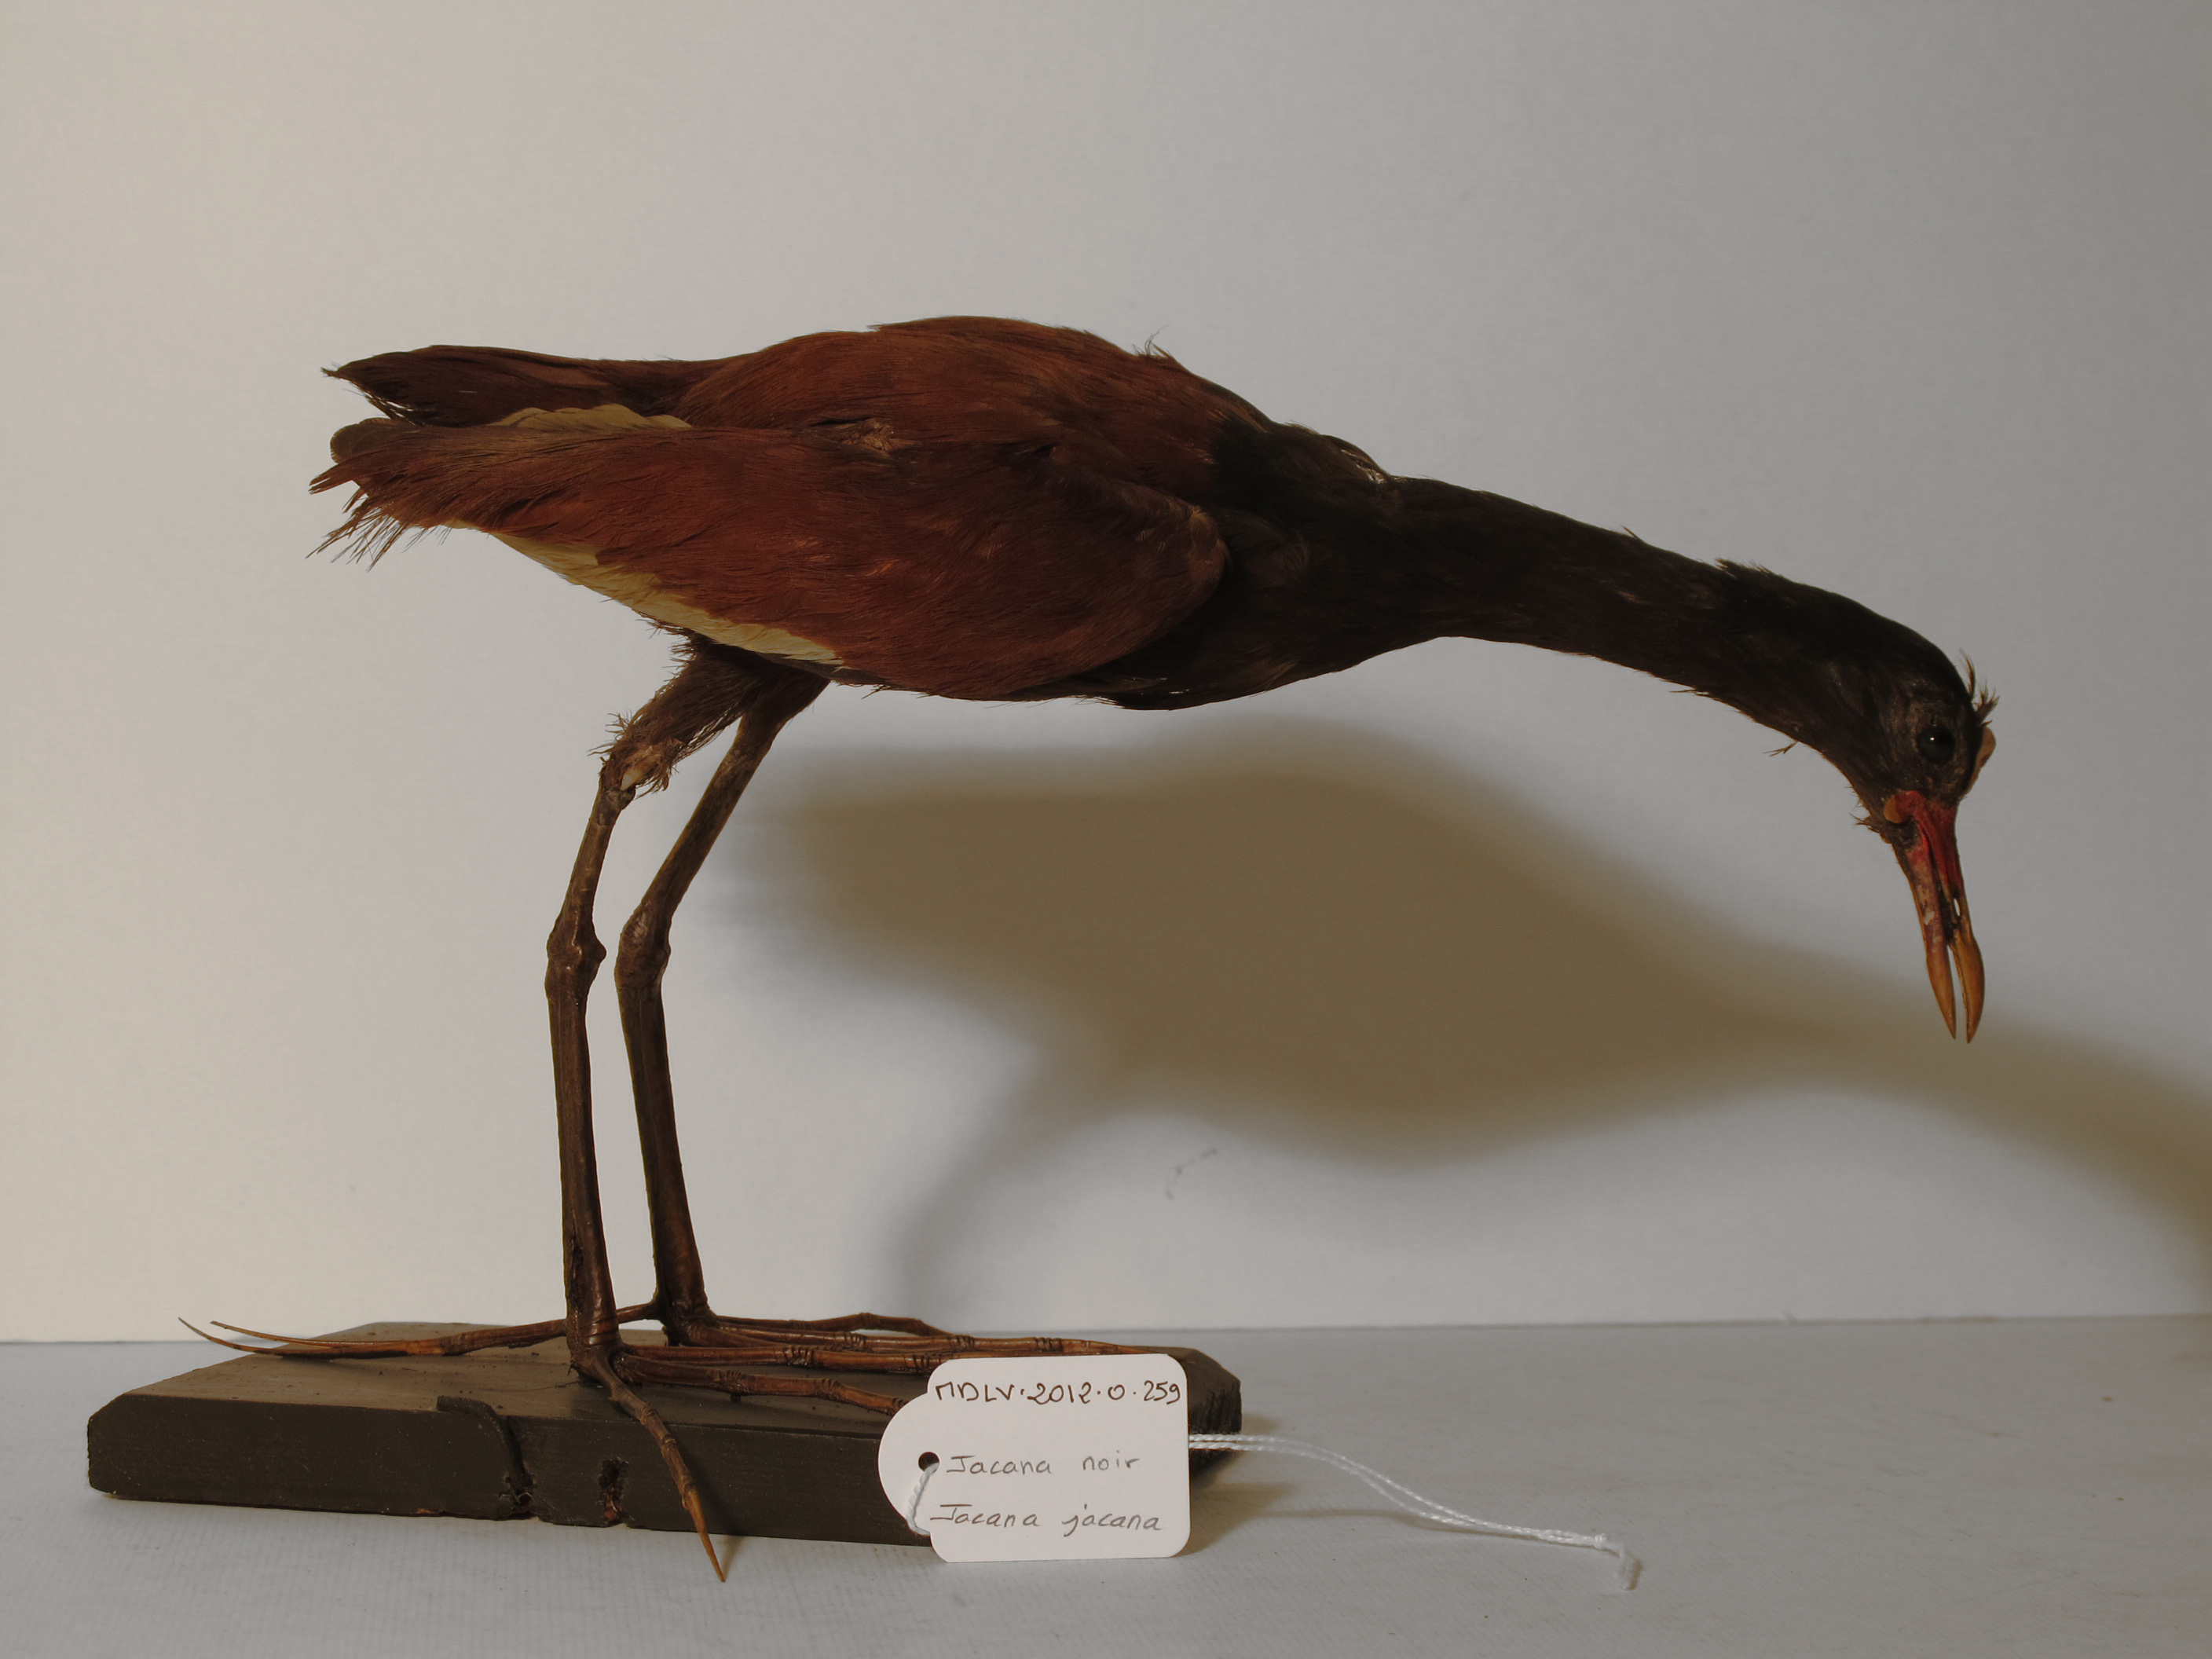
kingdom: Animalia
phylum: Chordata
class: Aves
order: Charadriiformes
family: Jacanidae
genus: Jacana
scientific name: Jacana jacana
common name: Wattled Jacana
